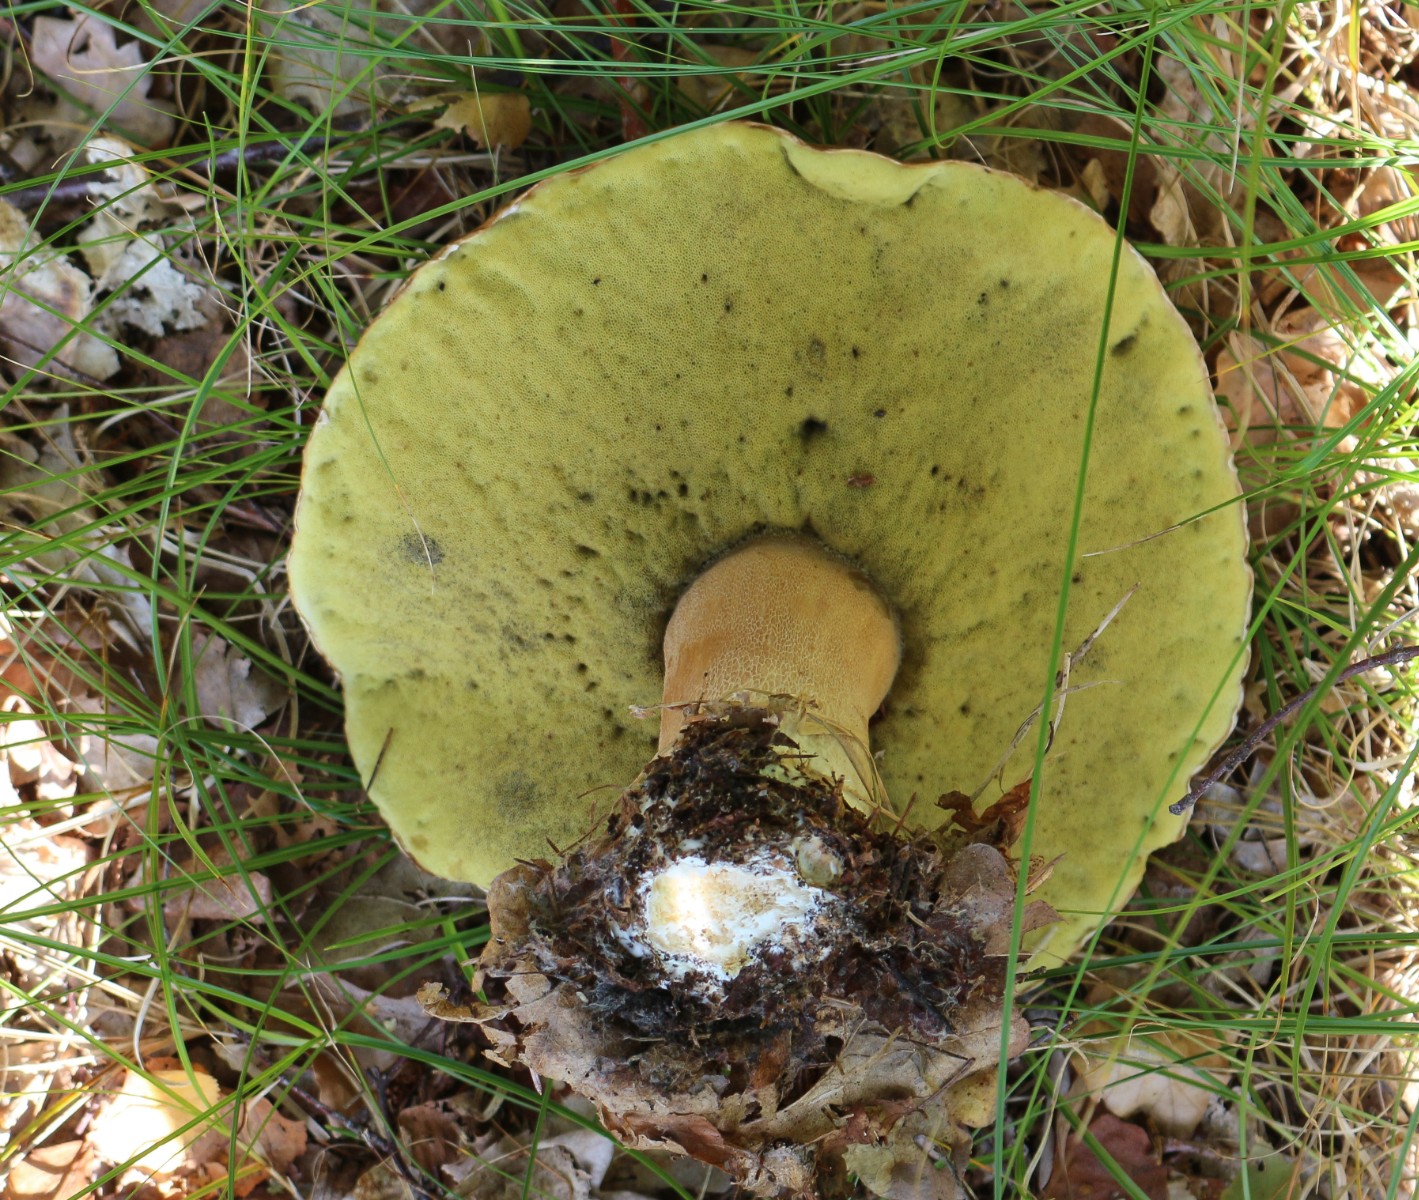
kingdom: Fungi
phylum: Basidiomycota
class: Agaricomycetes
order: Boletales
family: Boletaceae
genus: Boletus
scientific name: Boletus edulis
